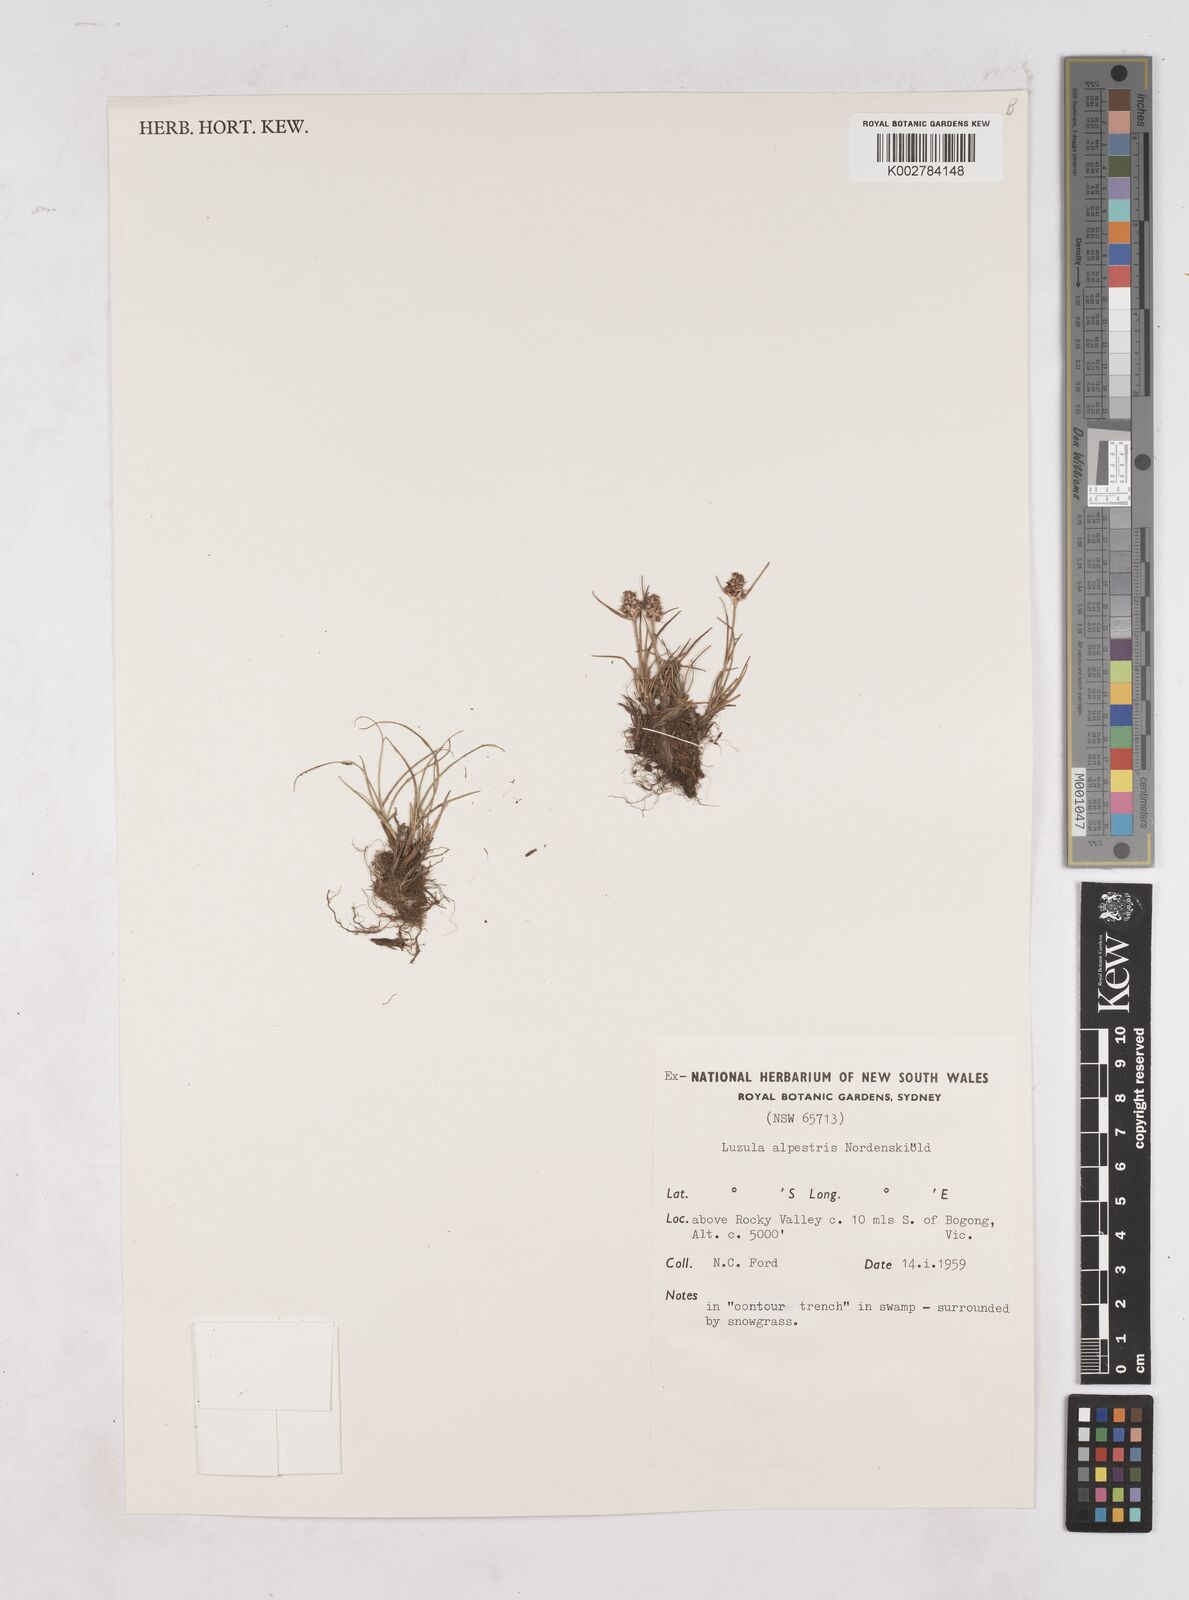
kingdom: Plantae
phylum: Tracheophyta
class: Liliopsida
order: Poales
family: Juncaceae
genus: Luzula
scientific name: Luzula alpestris
